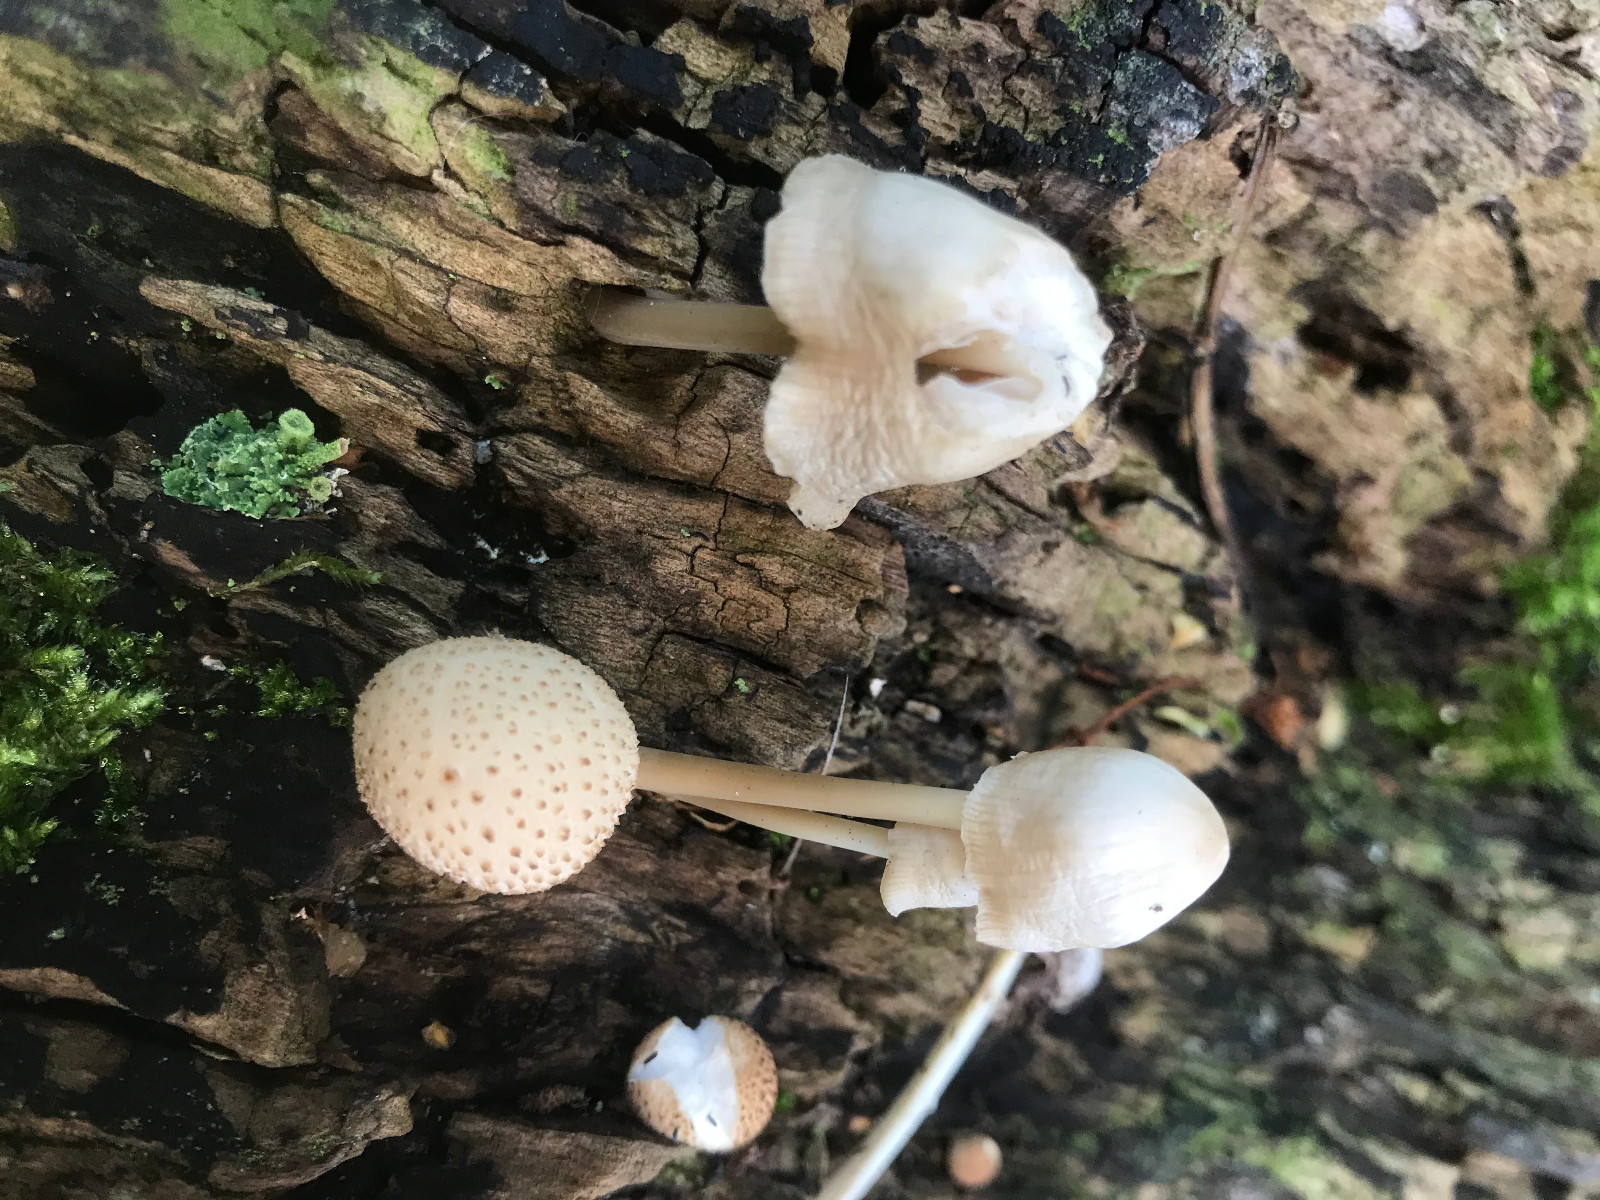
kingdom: Fungi
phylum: Basidiomycota
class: Agaricomycetes
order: Agaricales
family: Mycenaceae
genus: Mycena
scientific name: Mycena galericulata
